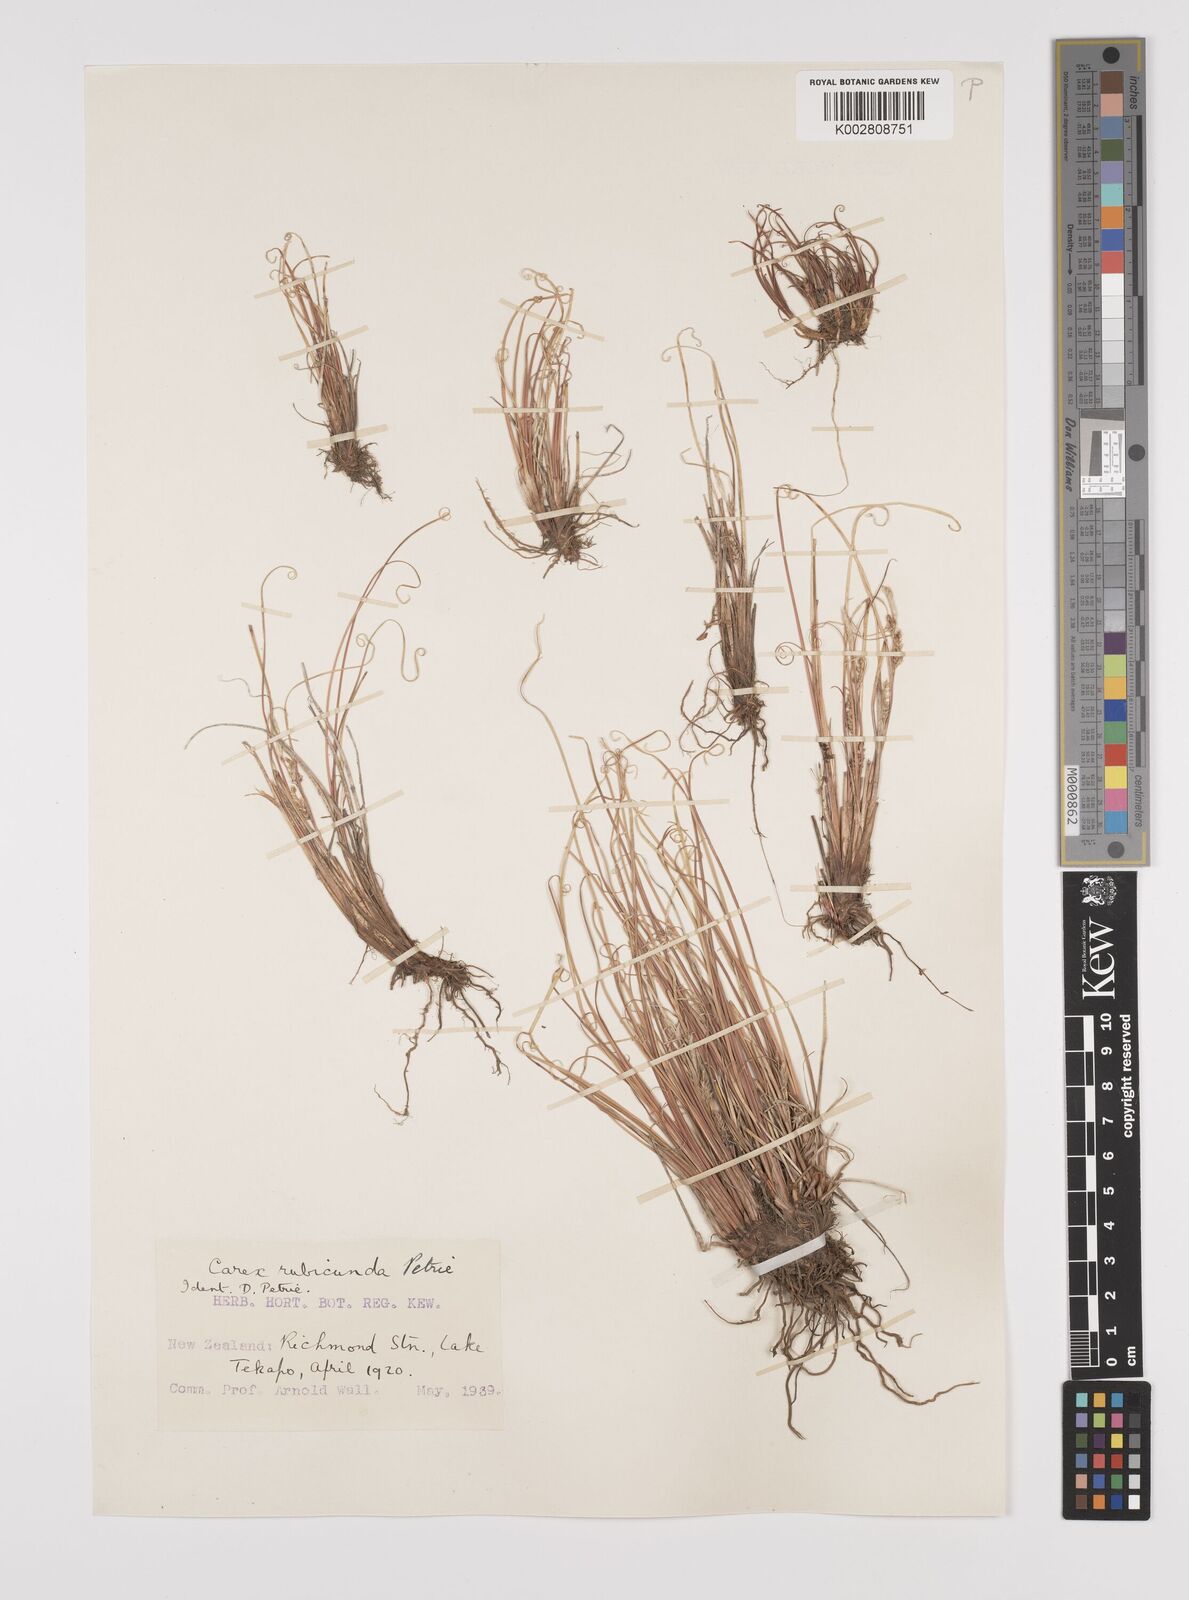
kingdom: Plantae
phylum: Tracheophyta
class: Liliopsida
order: Poales
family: Cyperaceae
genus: Carex
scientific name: Carex petriei
